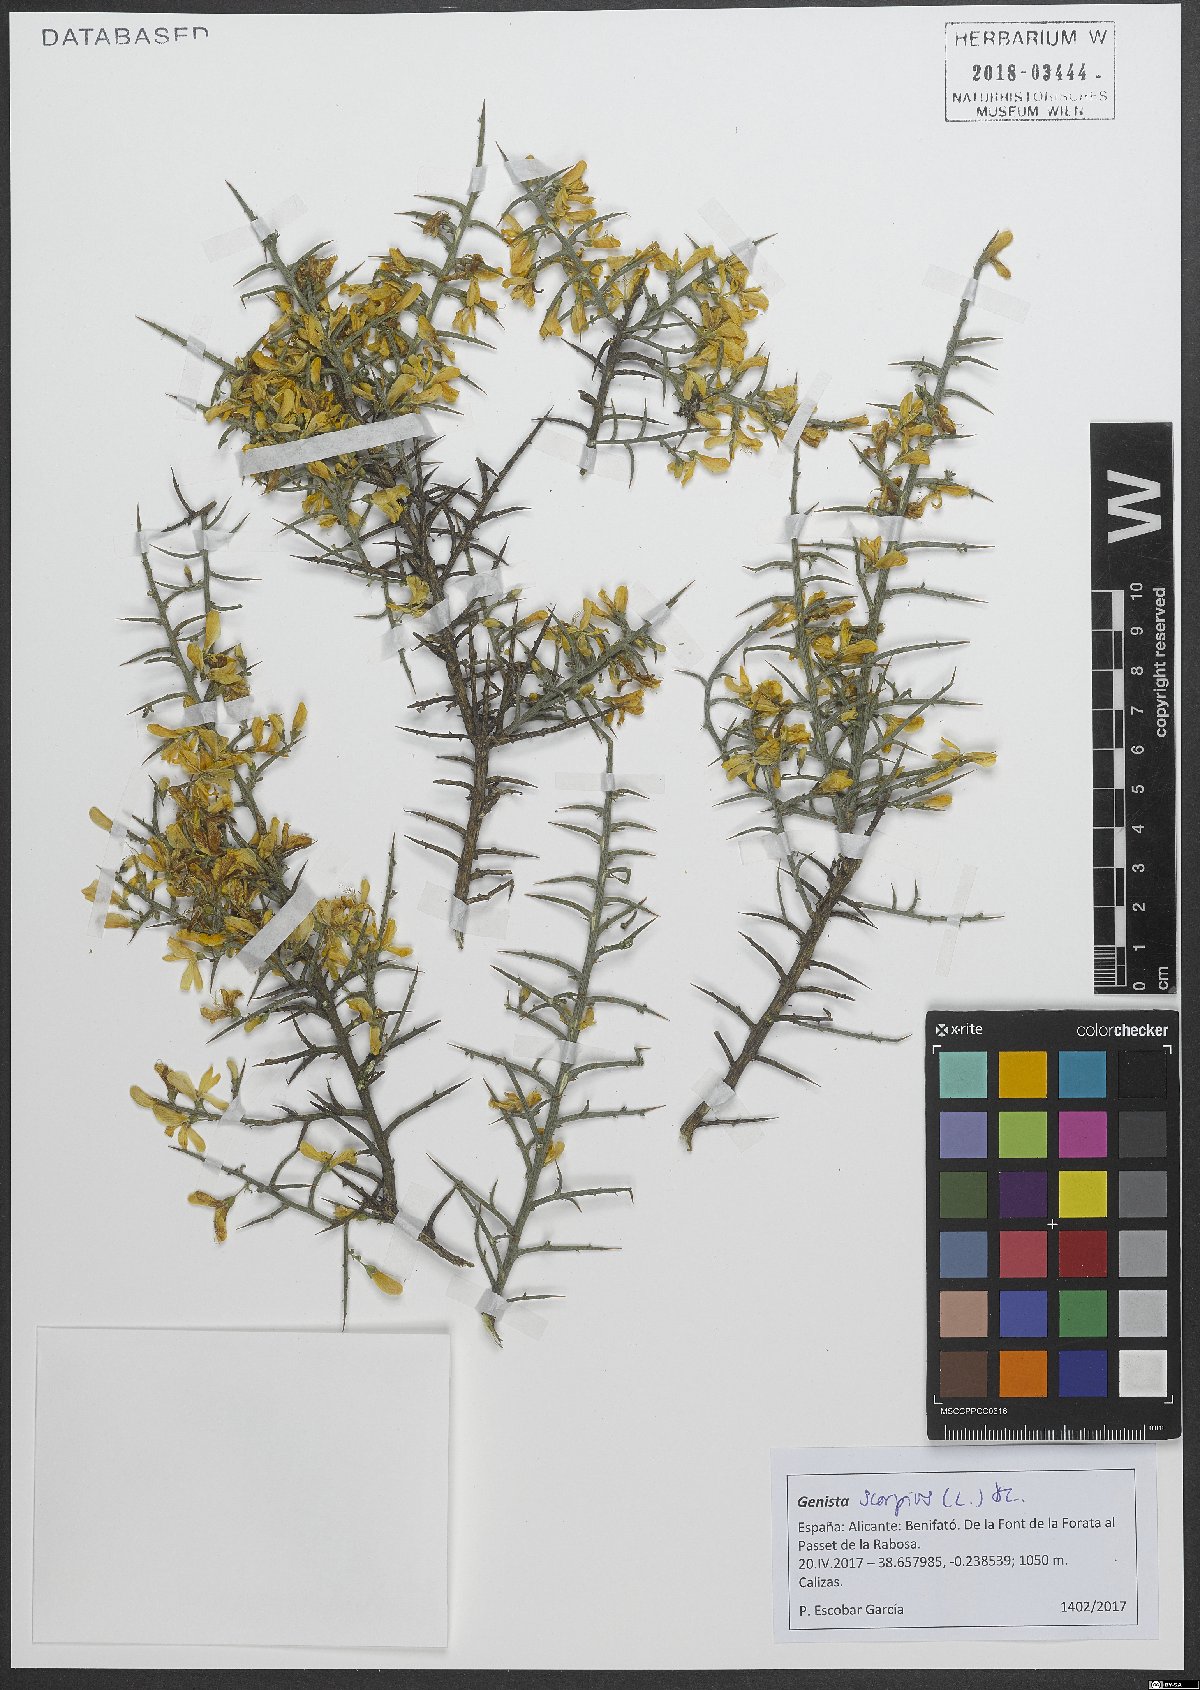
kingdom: Plantae
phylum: Tracheophyta
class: Magnoliopsida
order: Fabales
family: Fabaceae
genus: Genista
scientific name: Genista scorpius
